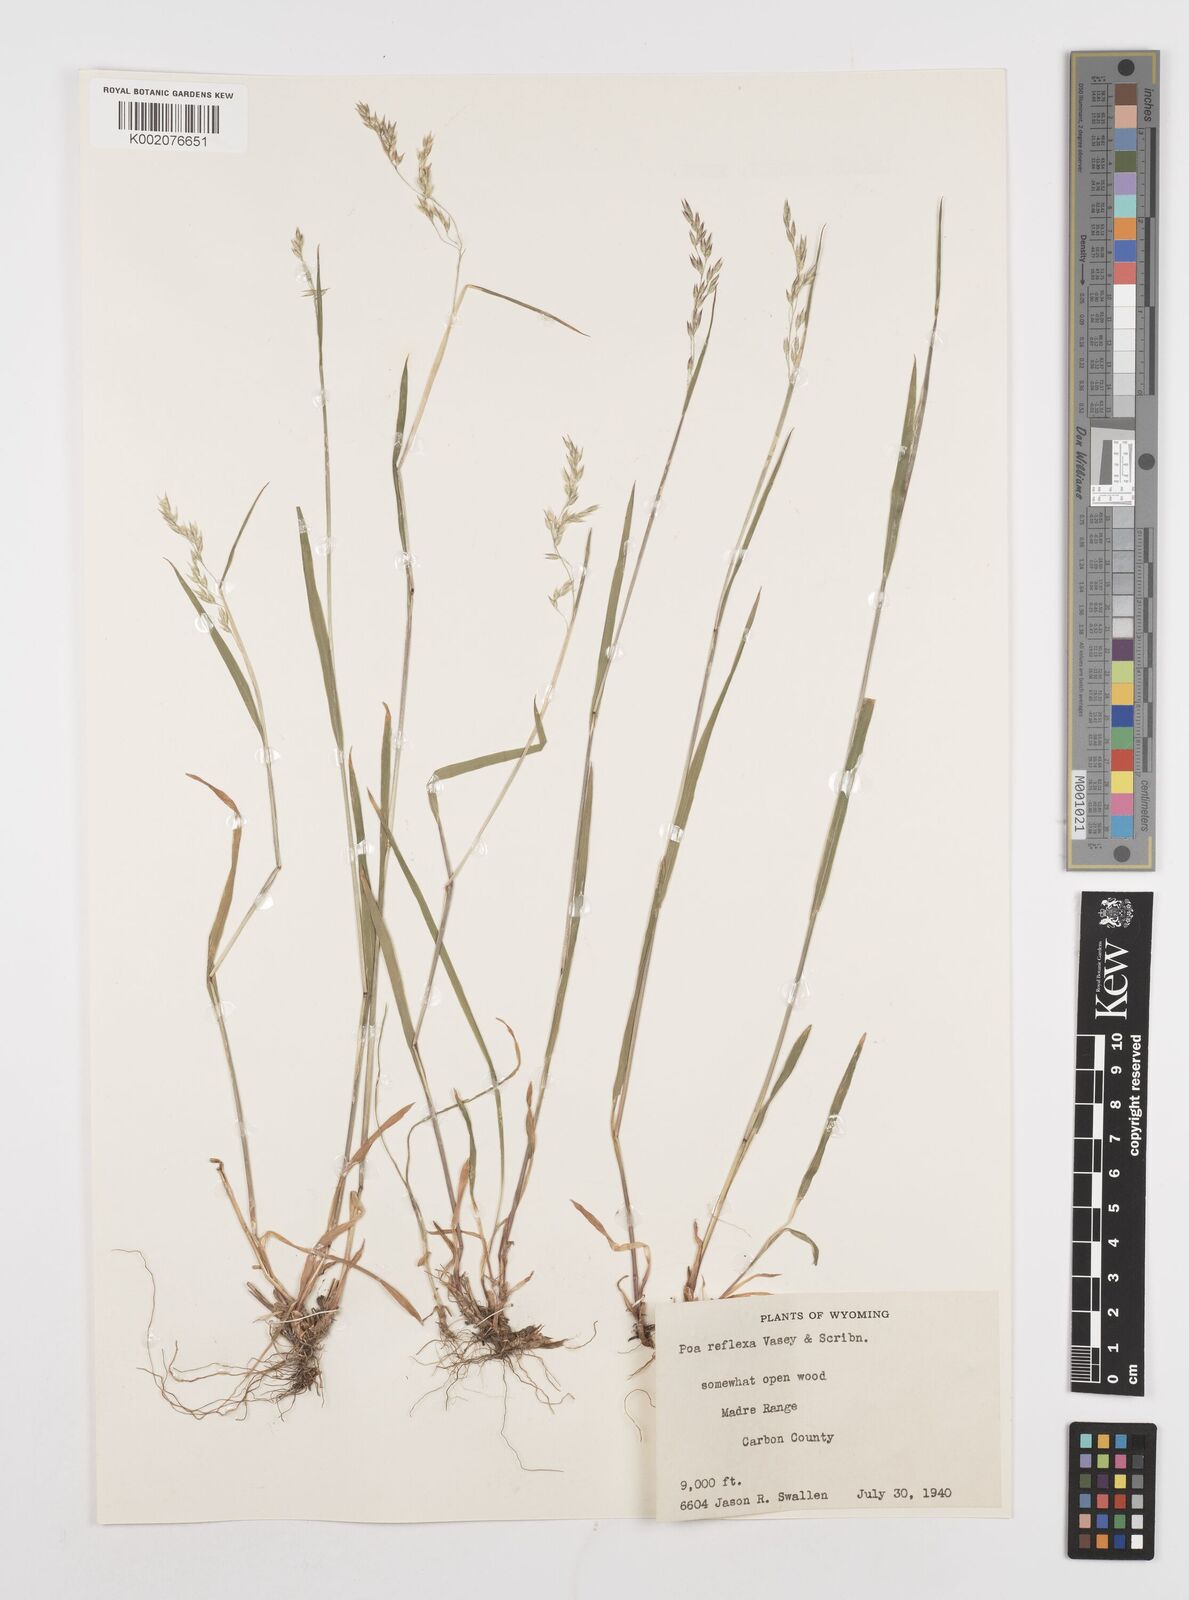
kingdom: Plantae
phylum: Tracheophyta
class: Liliopsida
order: Poales
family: Poaceae
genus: Poa
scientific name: Poa reflexa
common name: Nodding bluegrass
